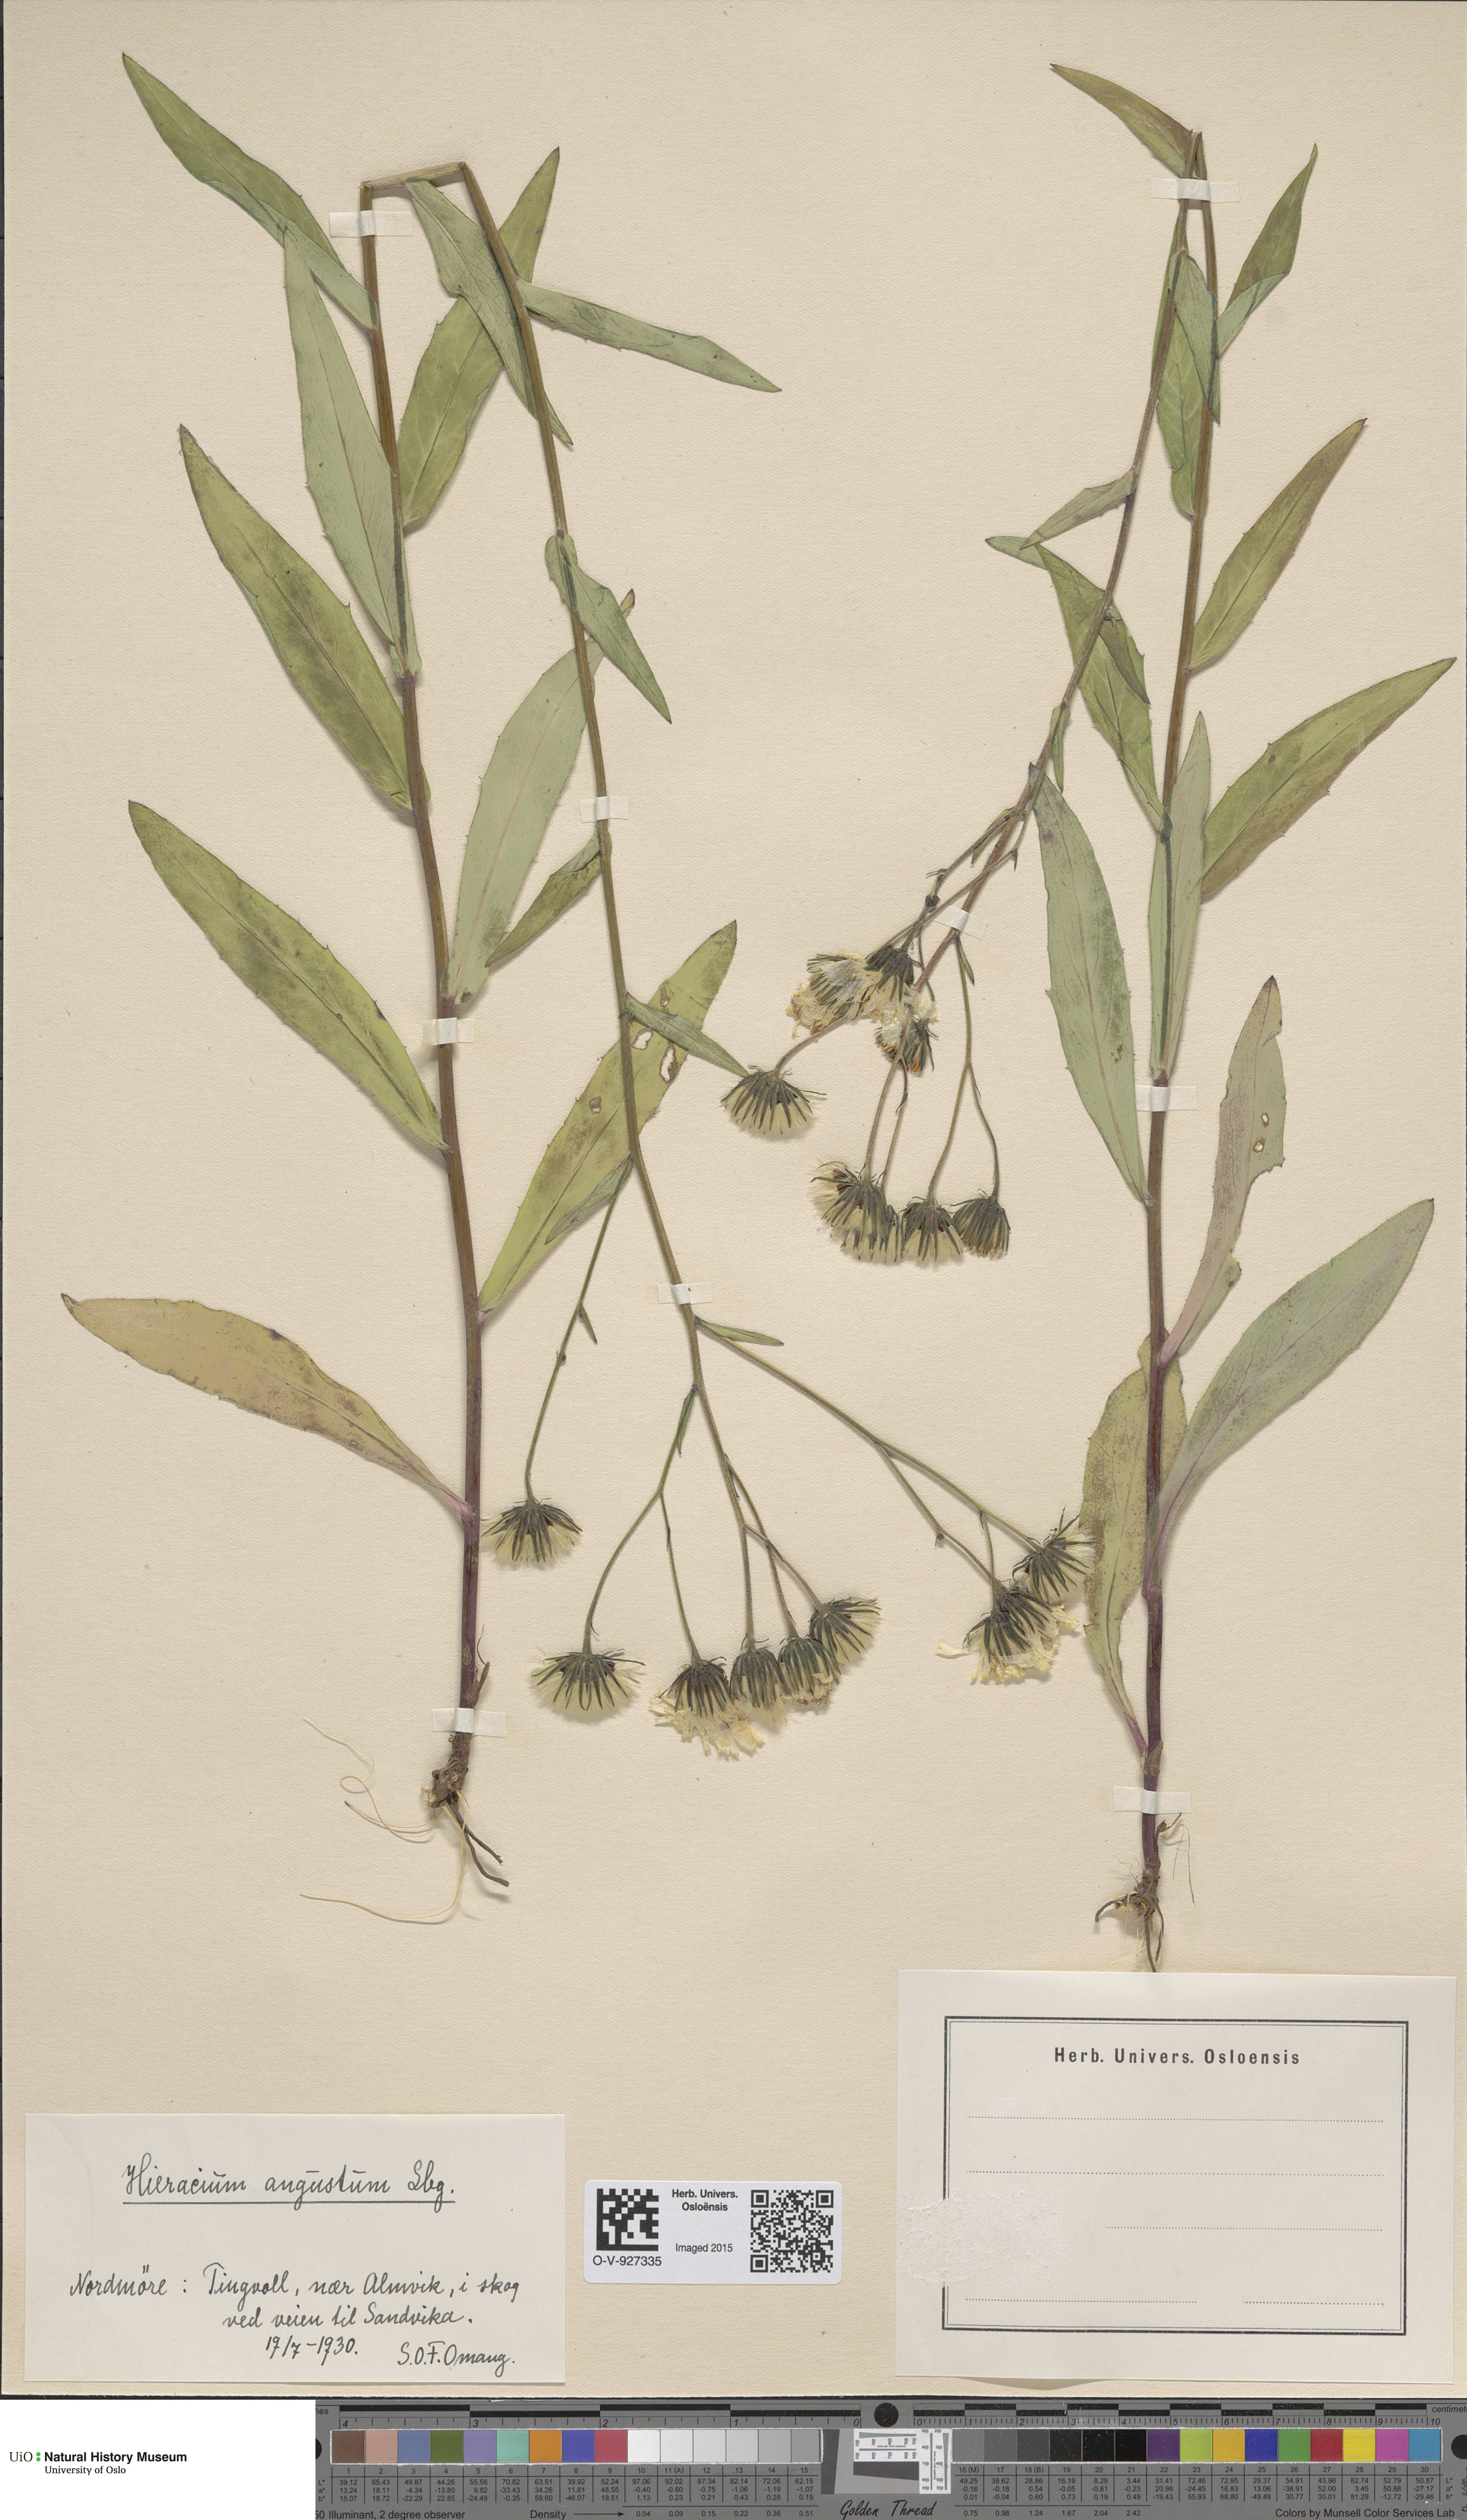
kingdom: Plantae
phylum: Tracheophyta
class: Magnoliopsida
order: Asterales
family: Asteraceae
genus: Hieracium
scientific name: Hieracium angustum
